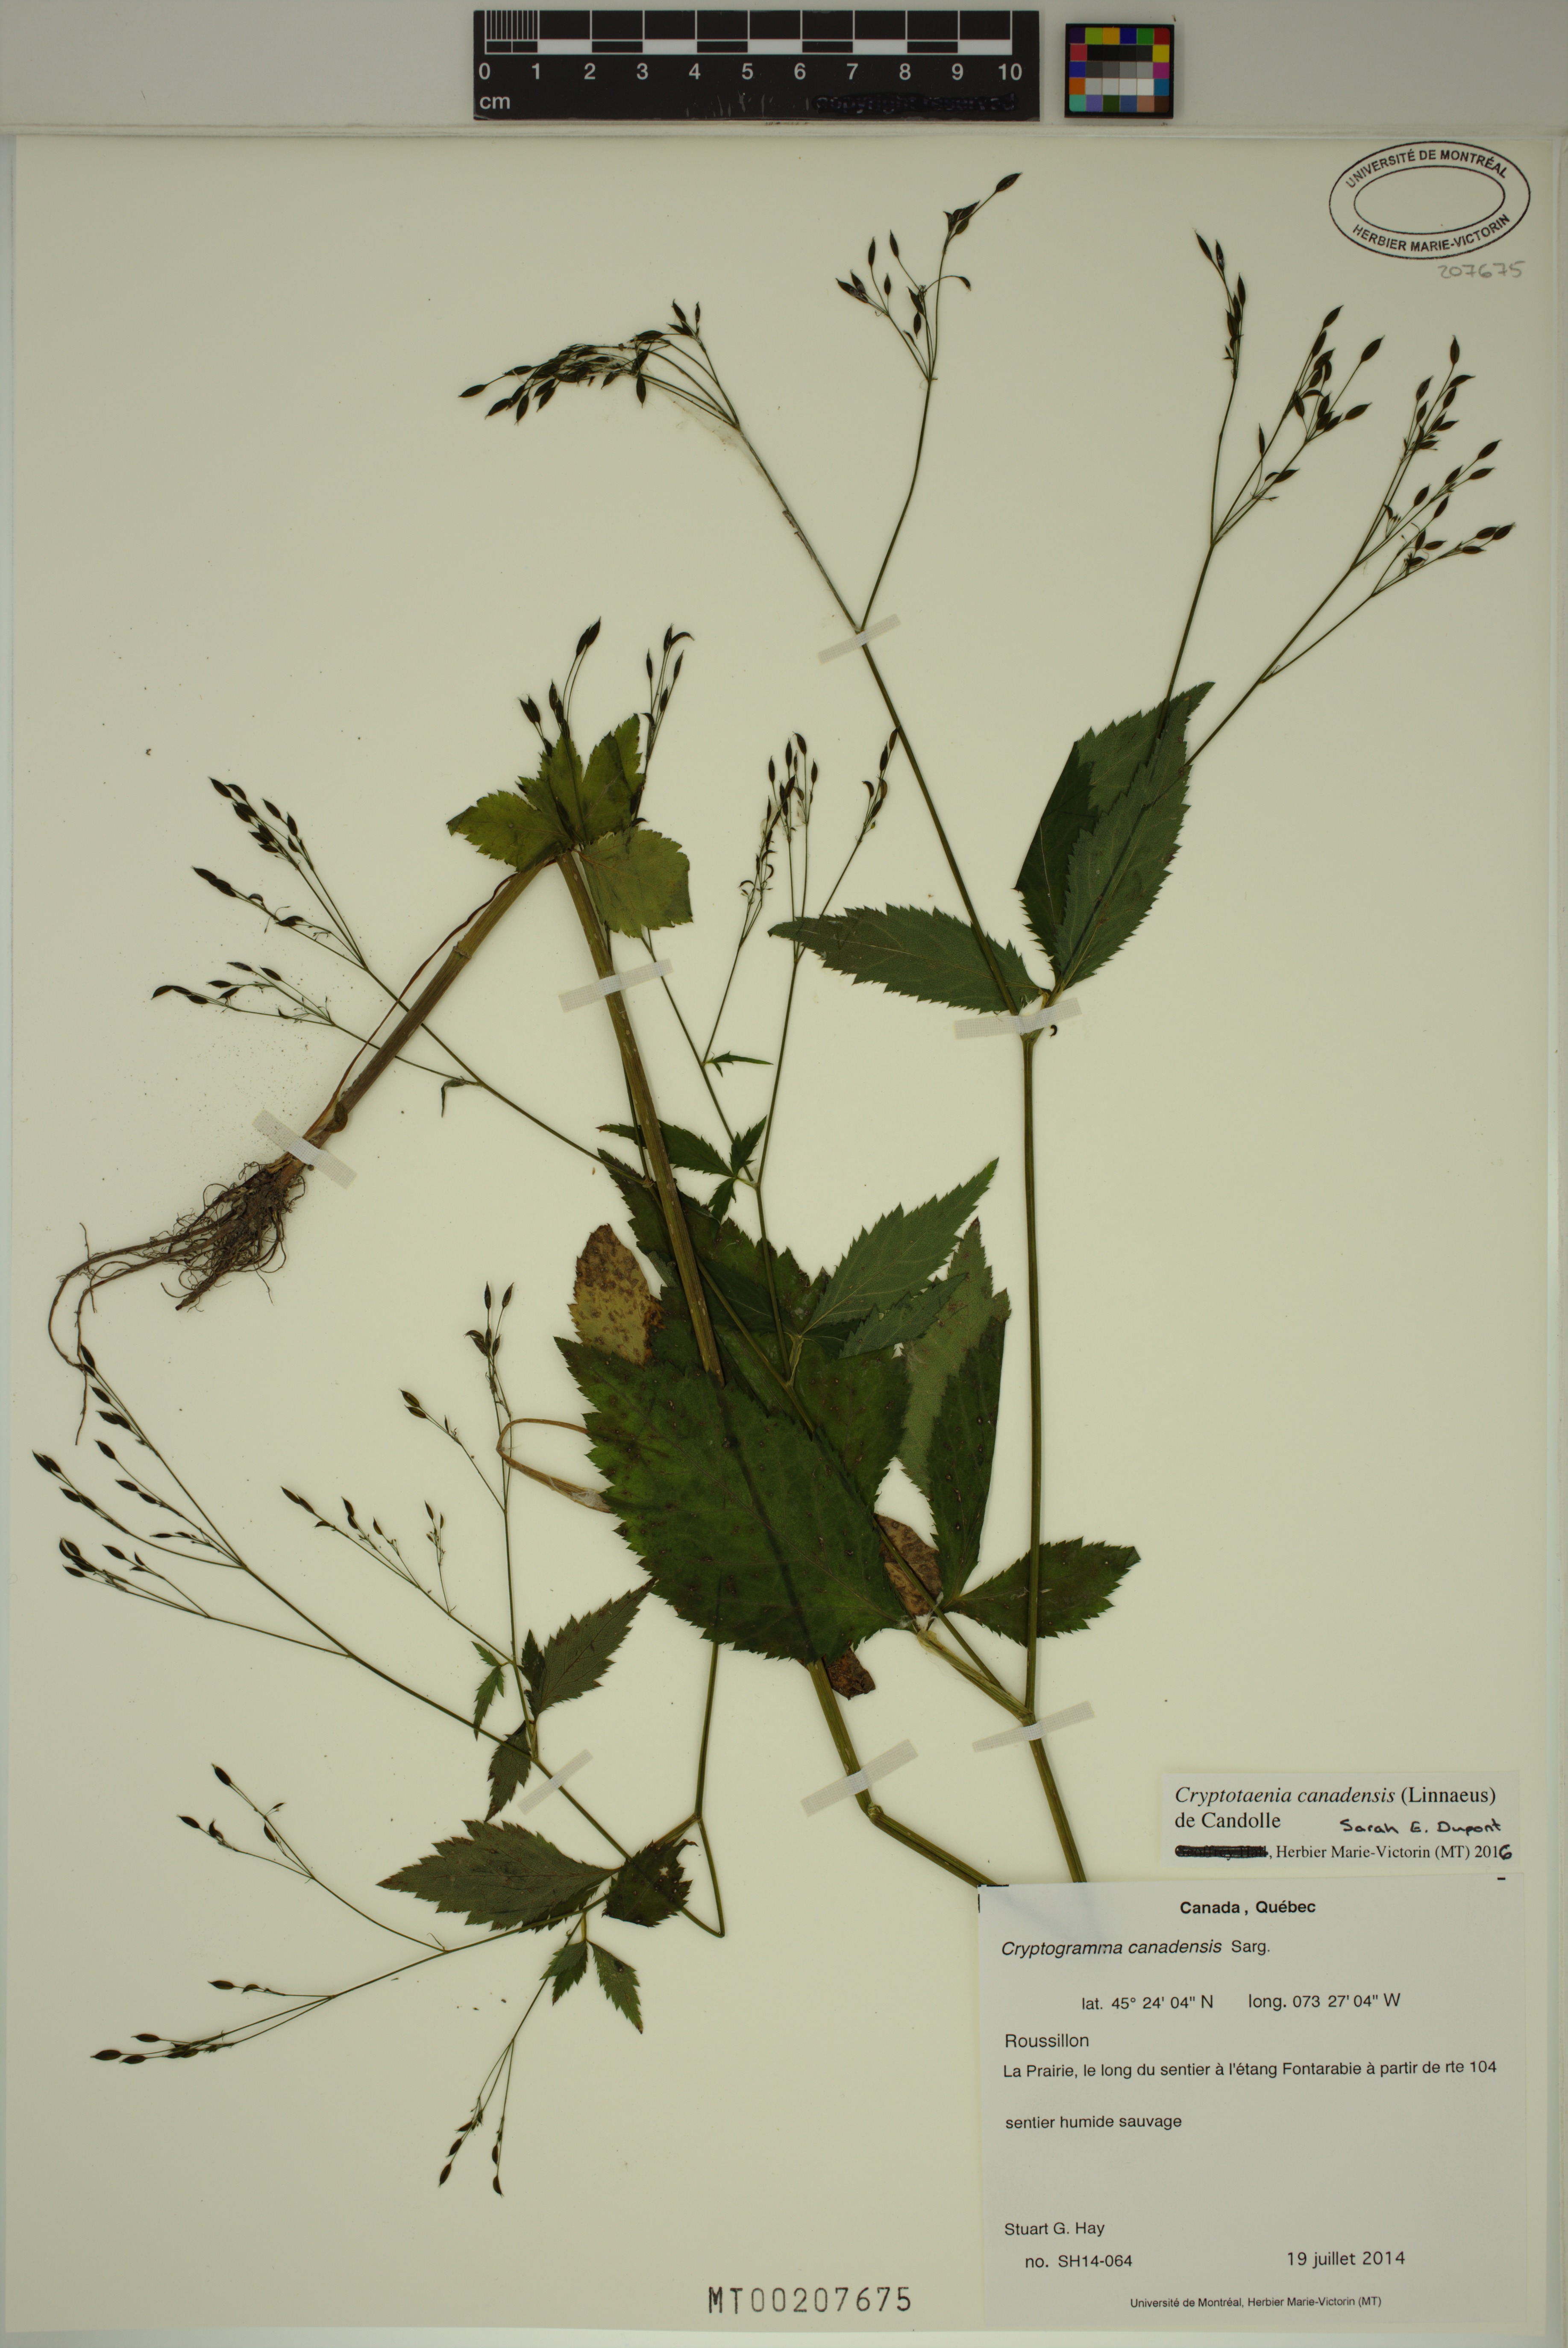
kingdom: Plantae
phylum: Tracheophyta
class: Magnoliopsida
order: Apiales
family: Apiaceae
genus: Cryptotaenia
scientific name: Cryptotaenia canadensis
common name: Honewort
